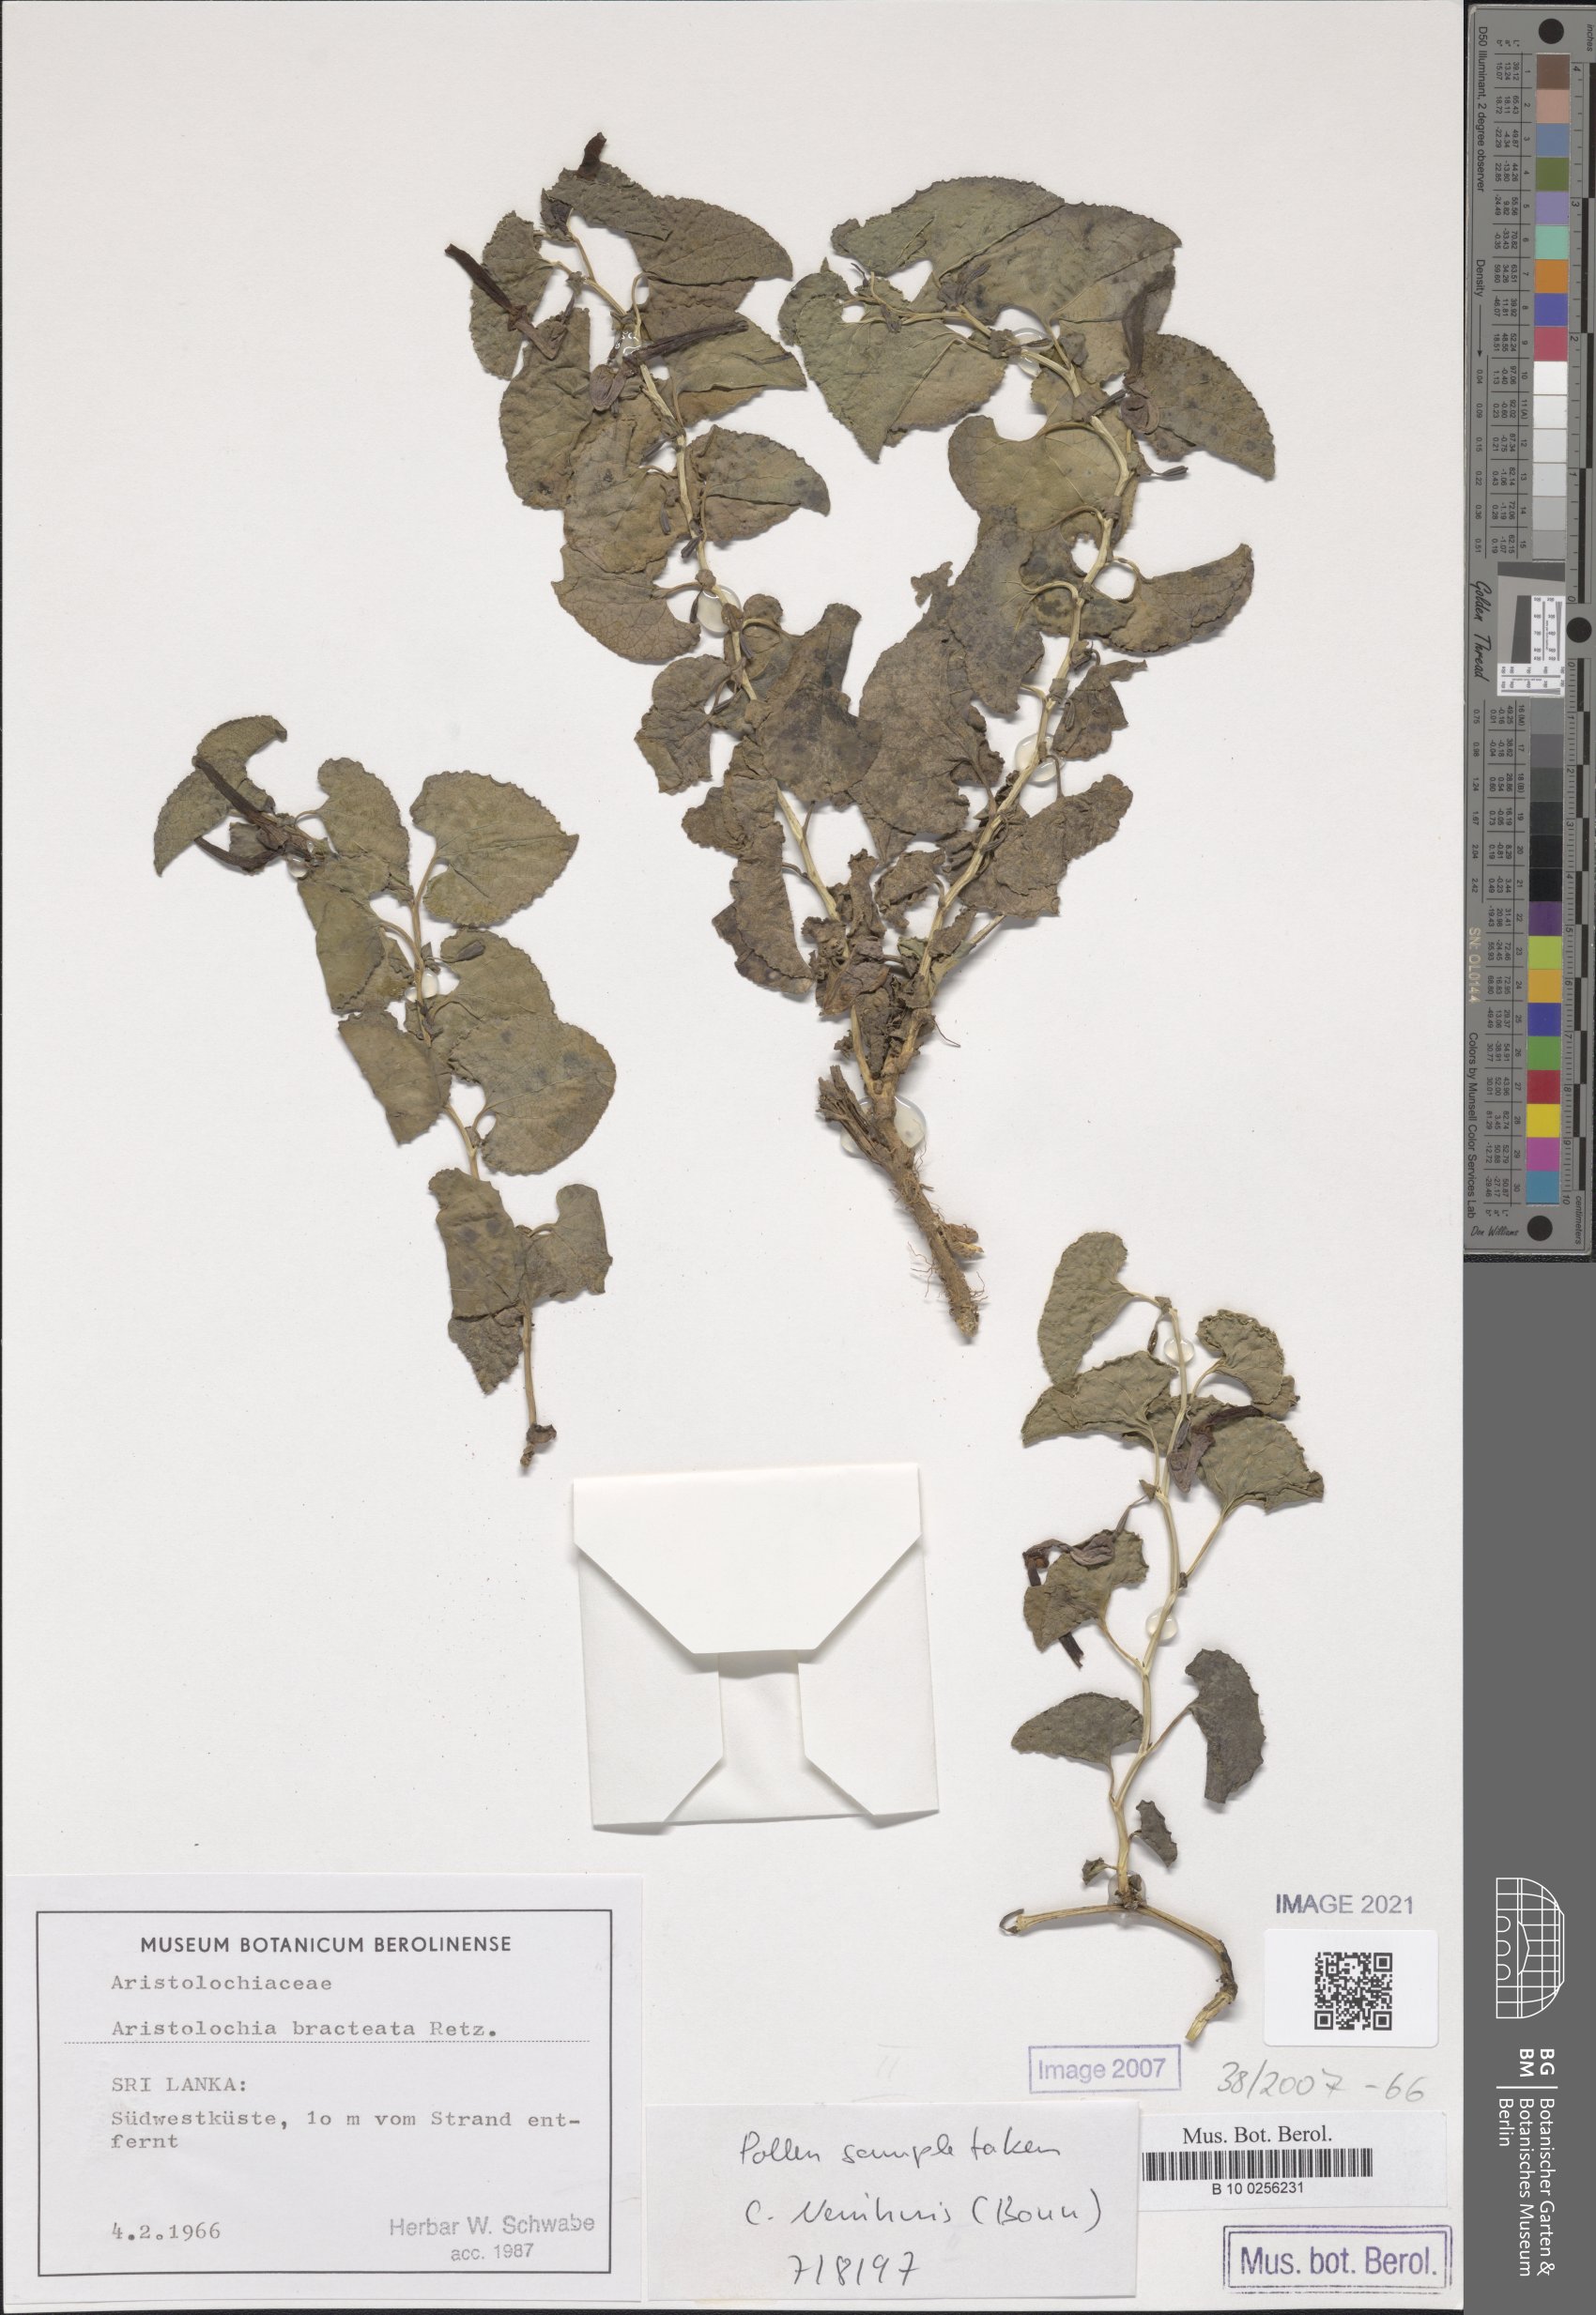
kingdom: Plantae
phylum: Tracheophyta
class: Magnoliopsida
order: Piperales
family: Aristolochiaceae
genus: Aristolochia
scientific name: Aristolochia bracteolata
